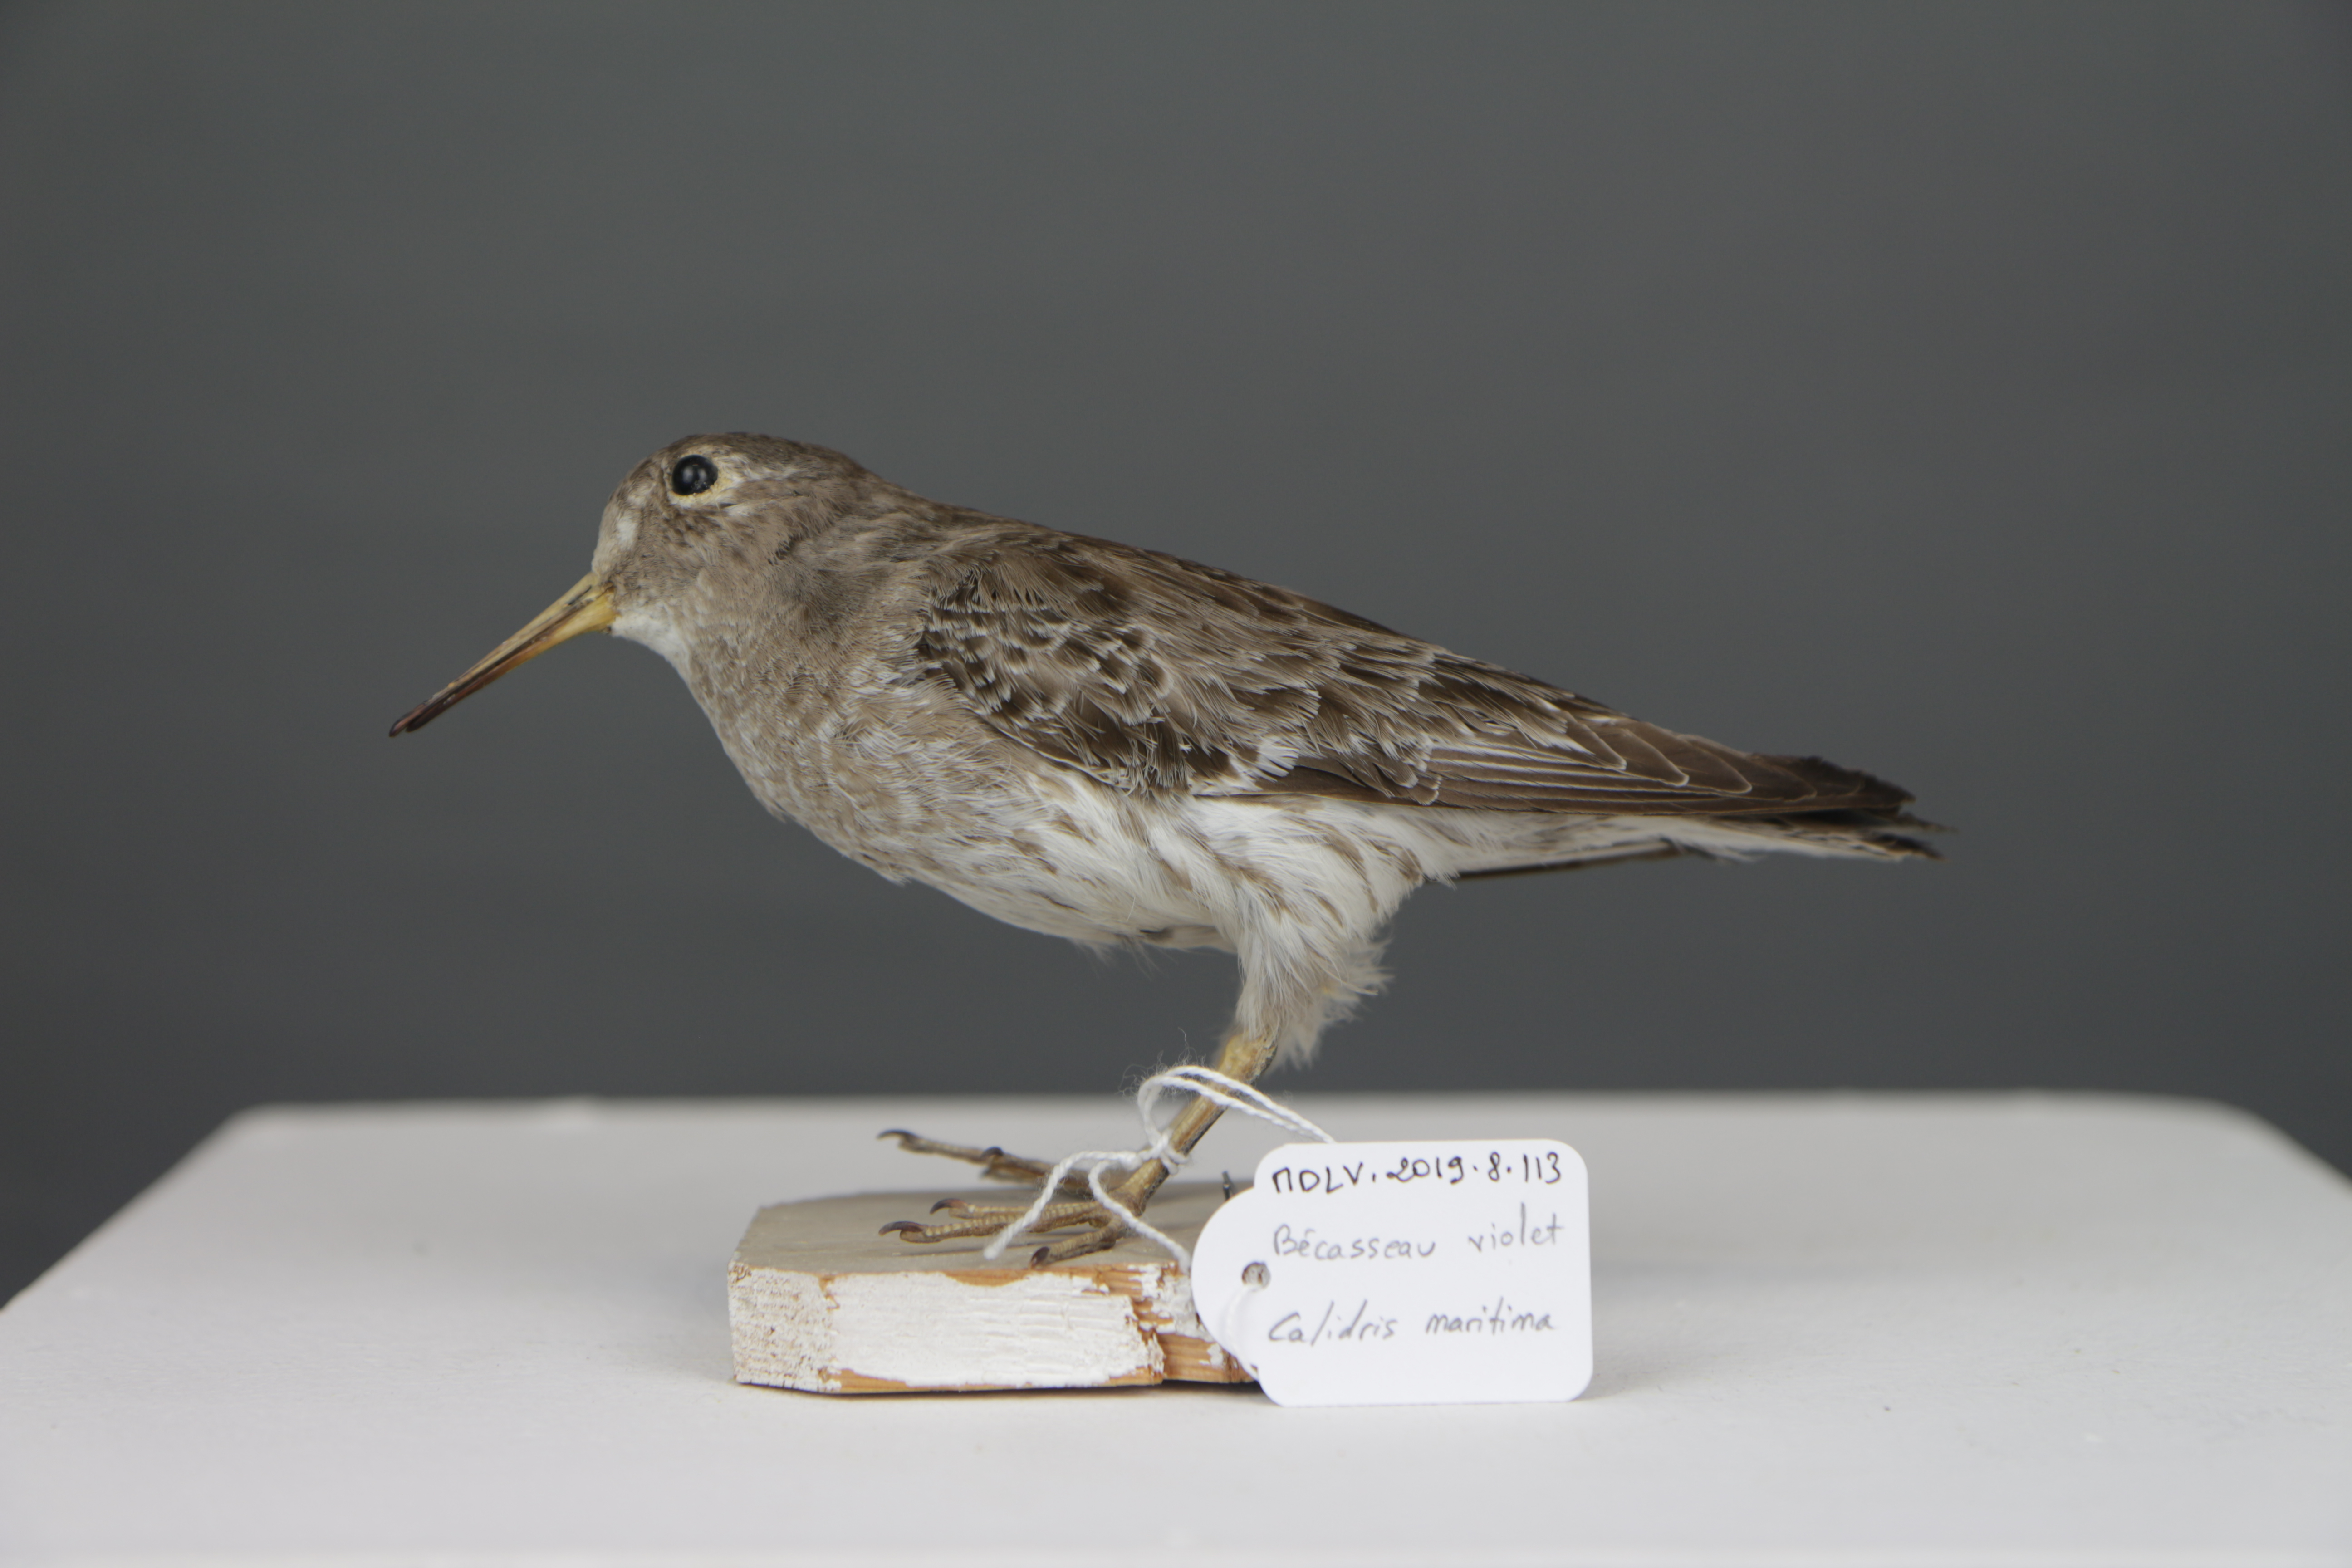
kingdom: Animalia
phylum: Chordata
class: Aves
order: Charadriiformes
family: Scolopacidae
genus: Calidris
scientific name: Calidris maritima
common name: Purple sandpiper
